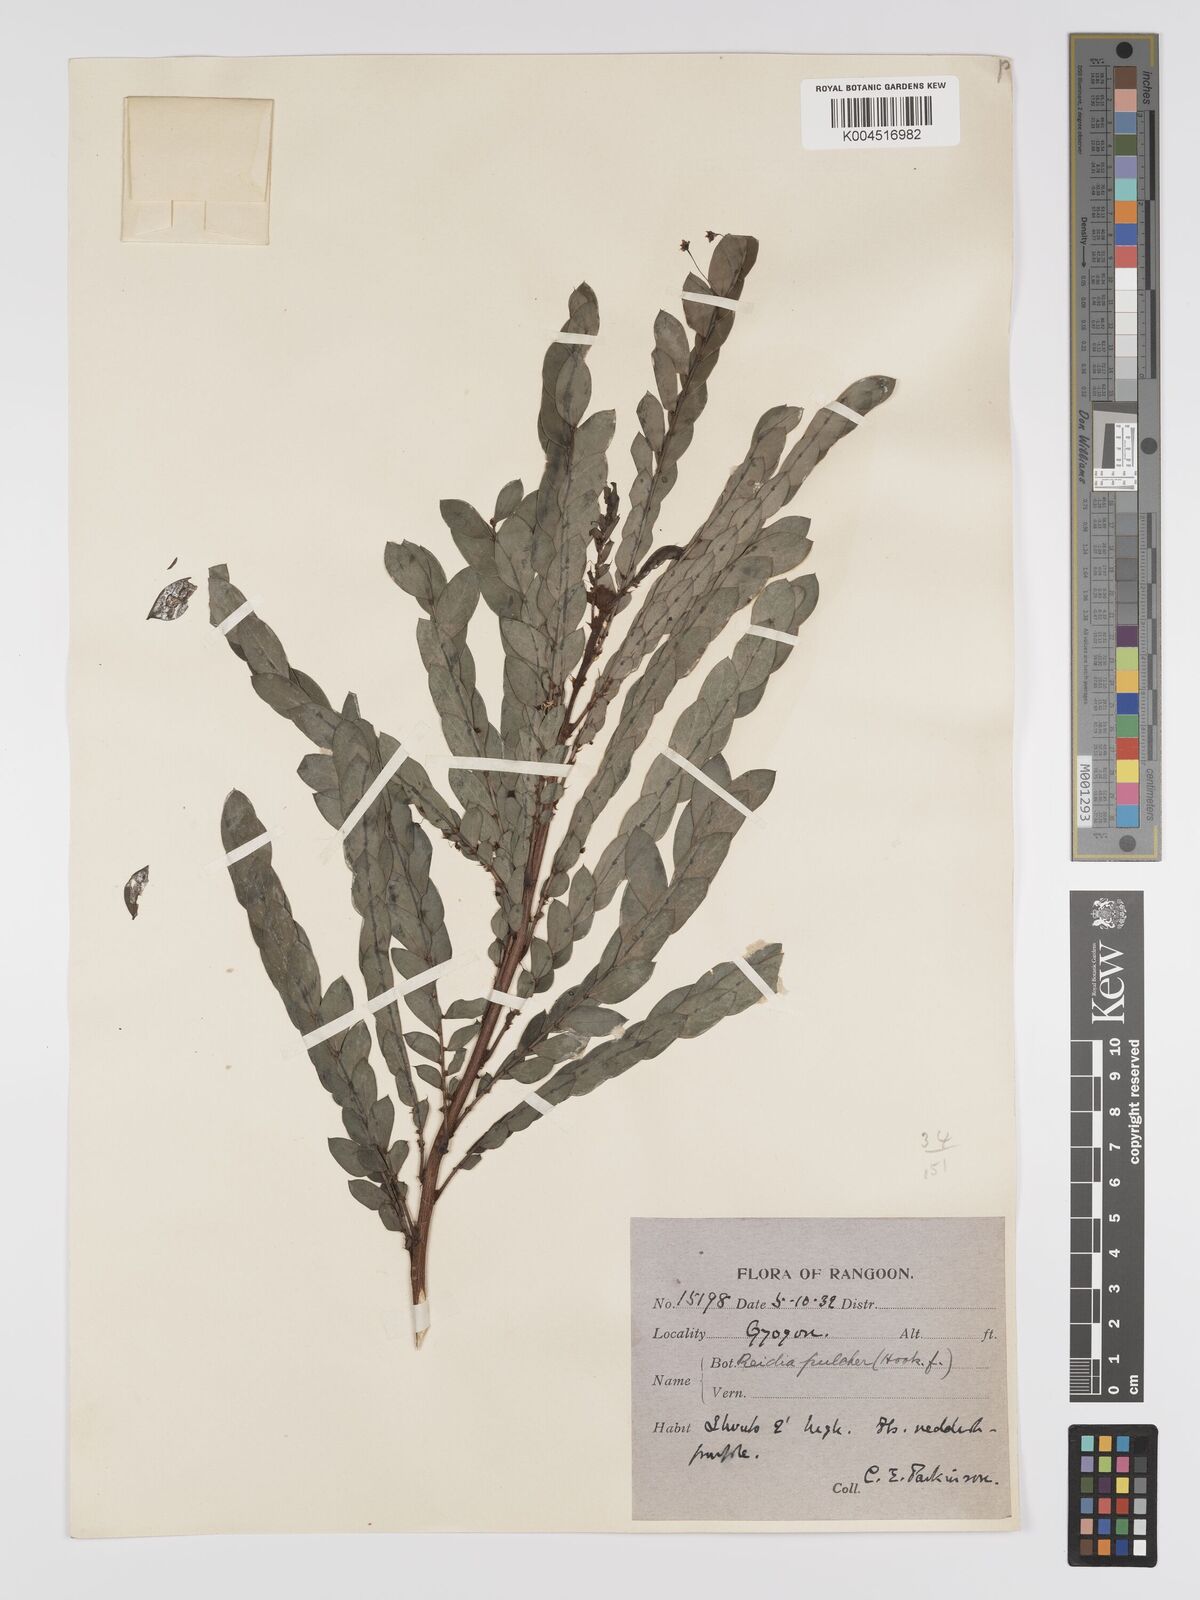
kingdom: Plantae
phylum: Tracheophyta
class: Magnoliopsida
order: Malpighiales
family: Phyllanthaceae
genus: Phyllanthus
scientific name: Phyllanthus pulcher
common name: Dragon-of-the-world
